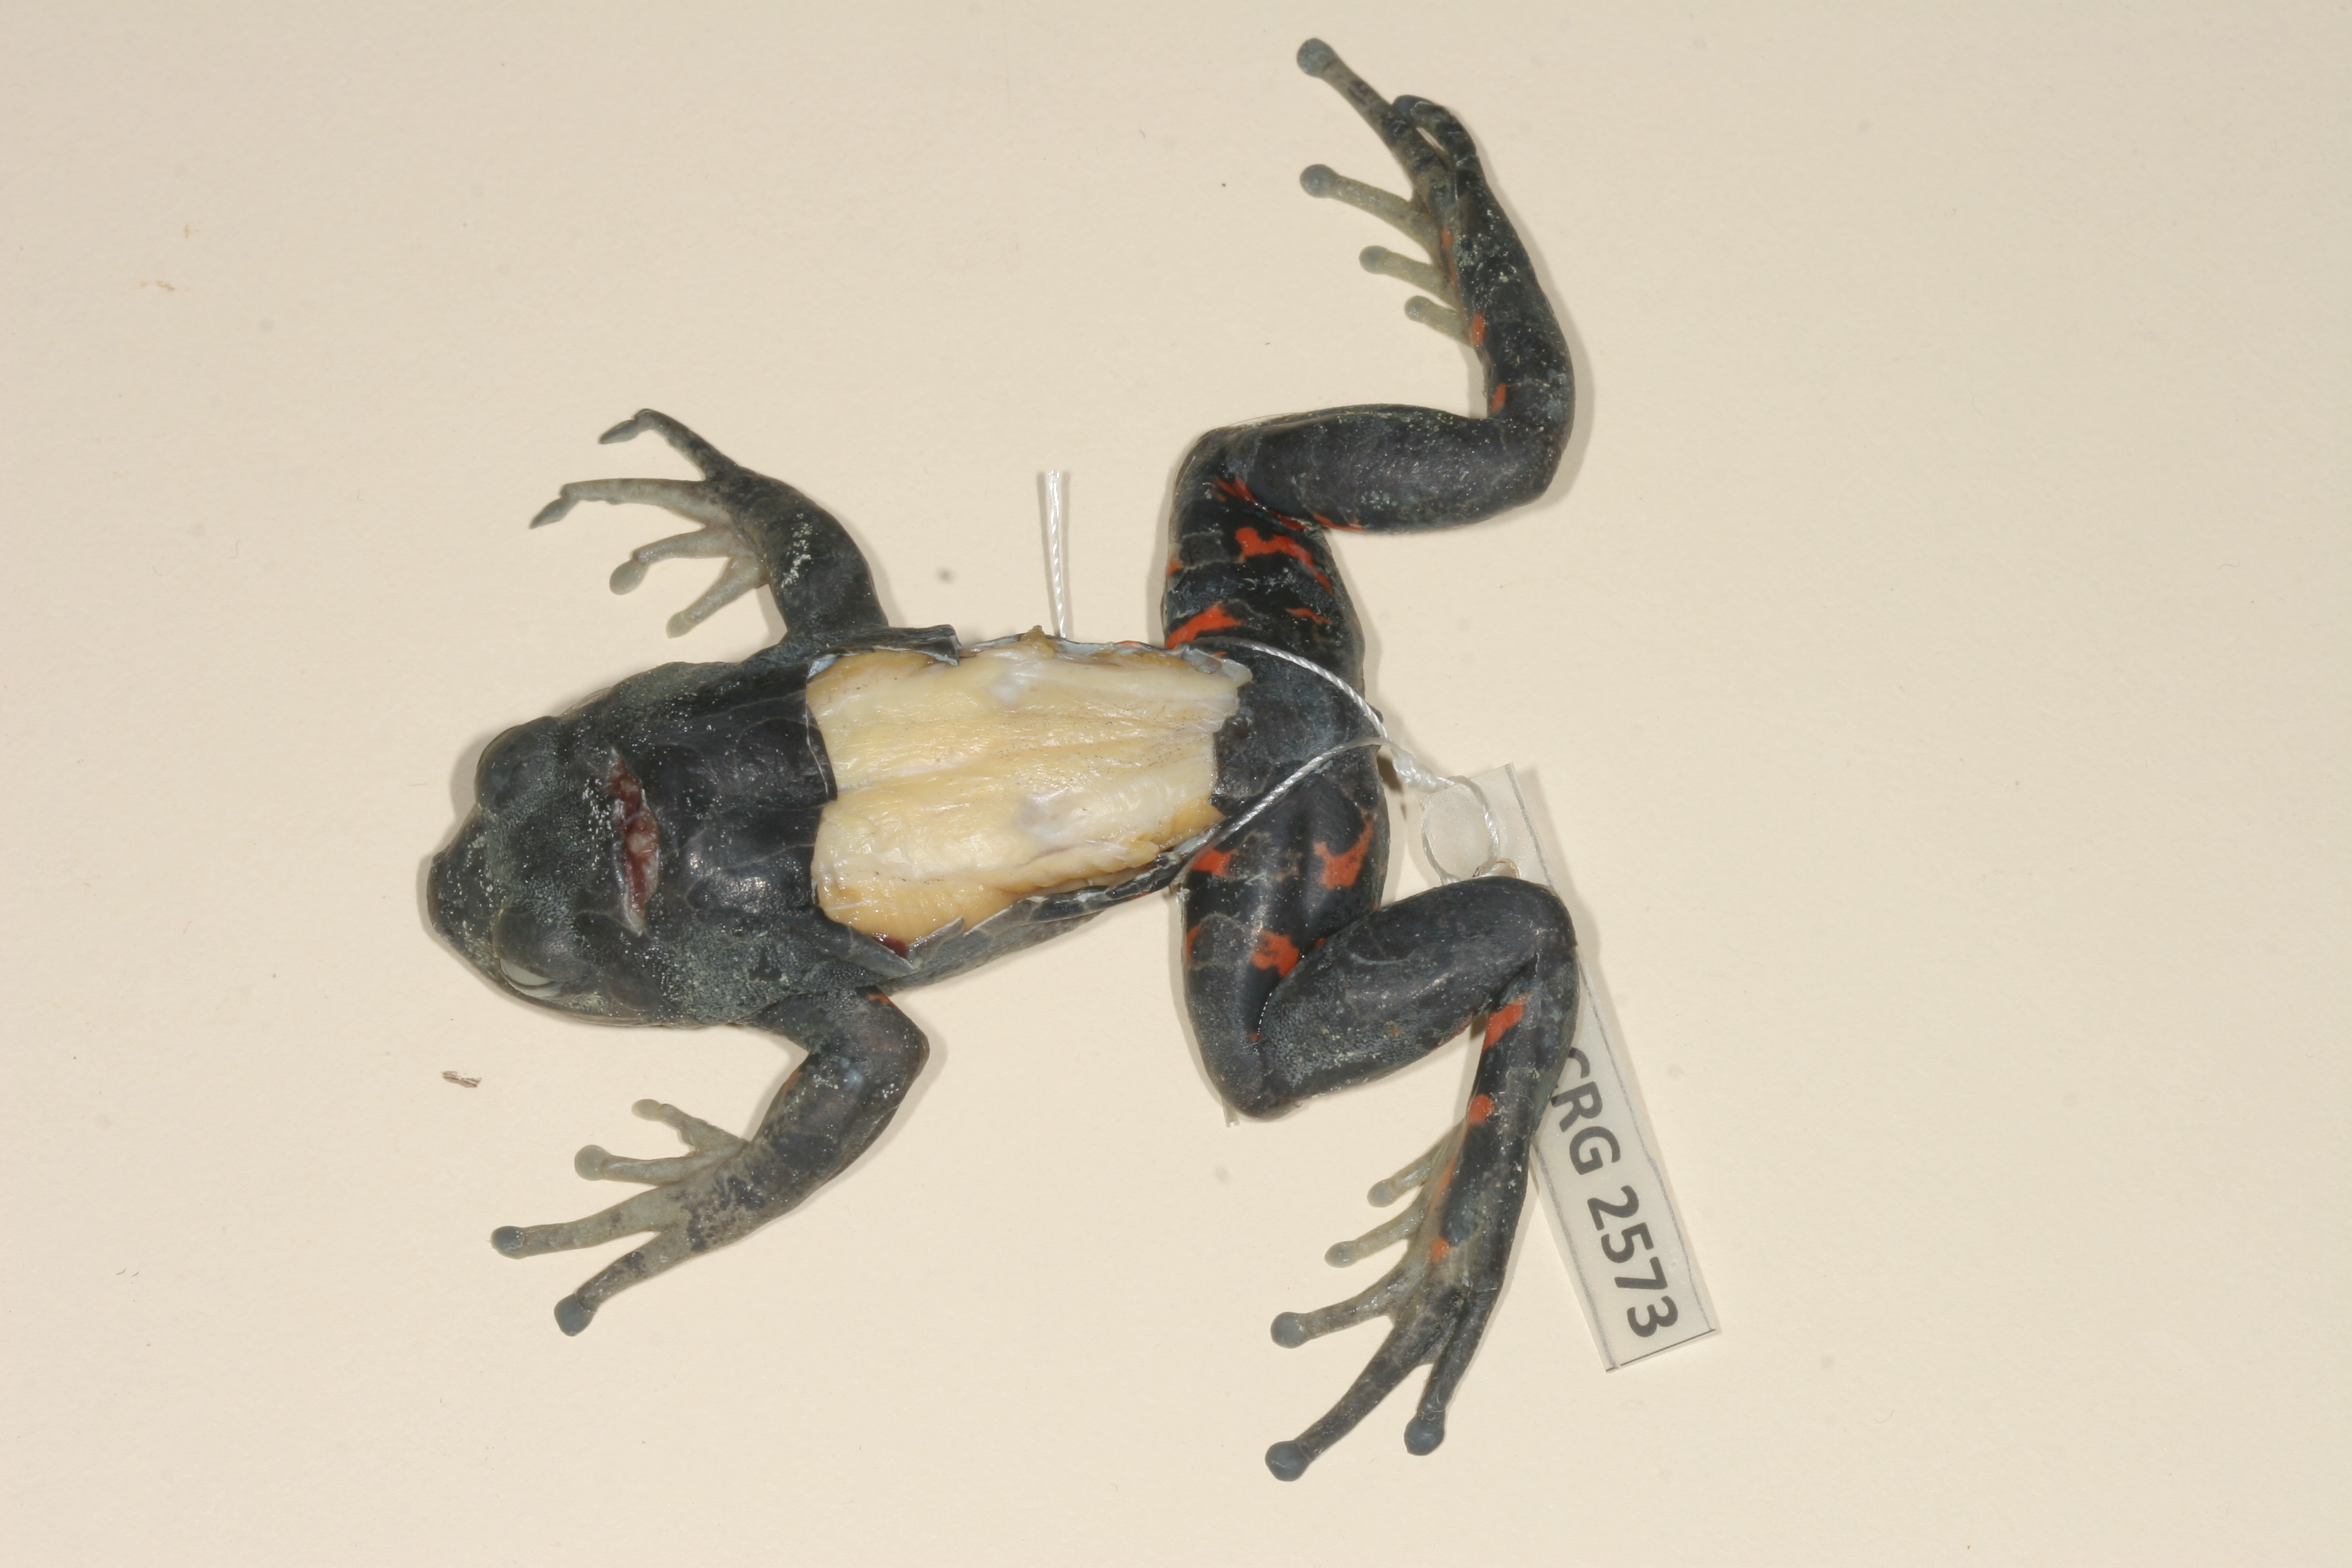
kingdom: Animalia
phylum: Chordata
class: Amphibia
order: Anura
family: Hyperoliidae
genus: Phlyctimantis
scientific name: Phlyctimantis maculatus
